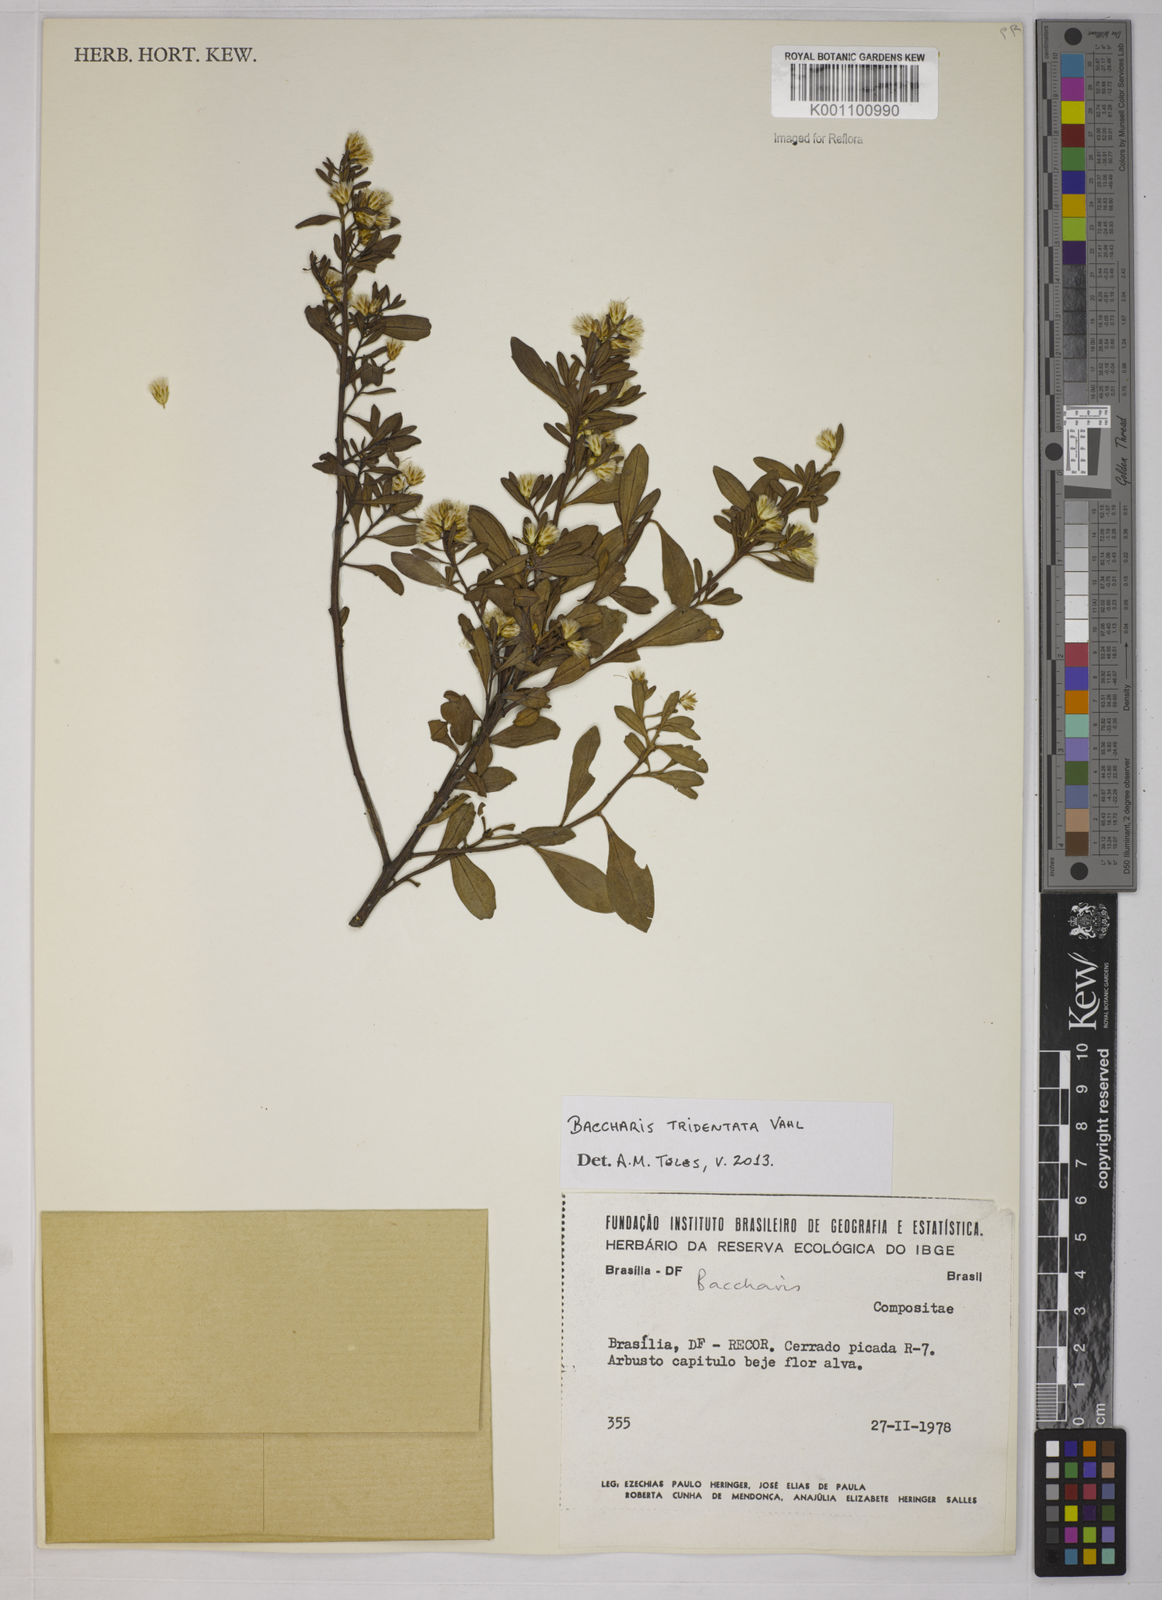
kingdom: Plantae
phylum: Tracheophyta
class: Magnoliopsida
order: Asterales
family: Asteraceae
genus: Baccharis
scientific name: Baccharis tridentata
